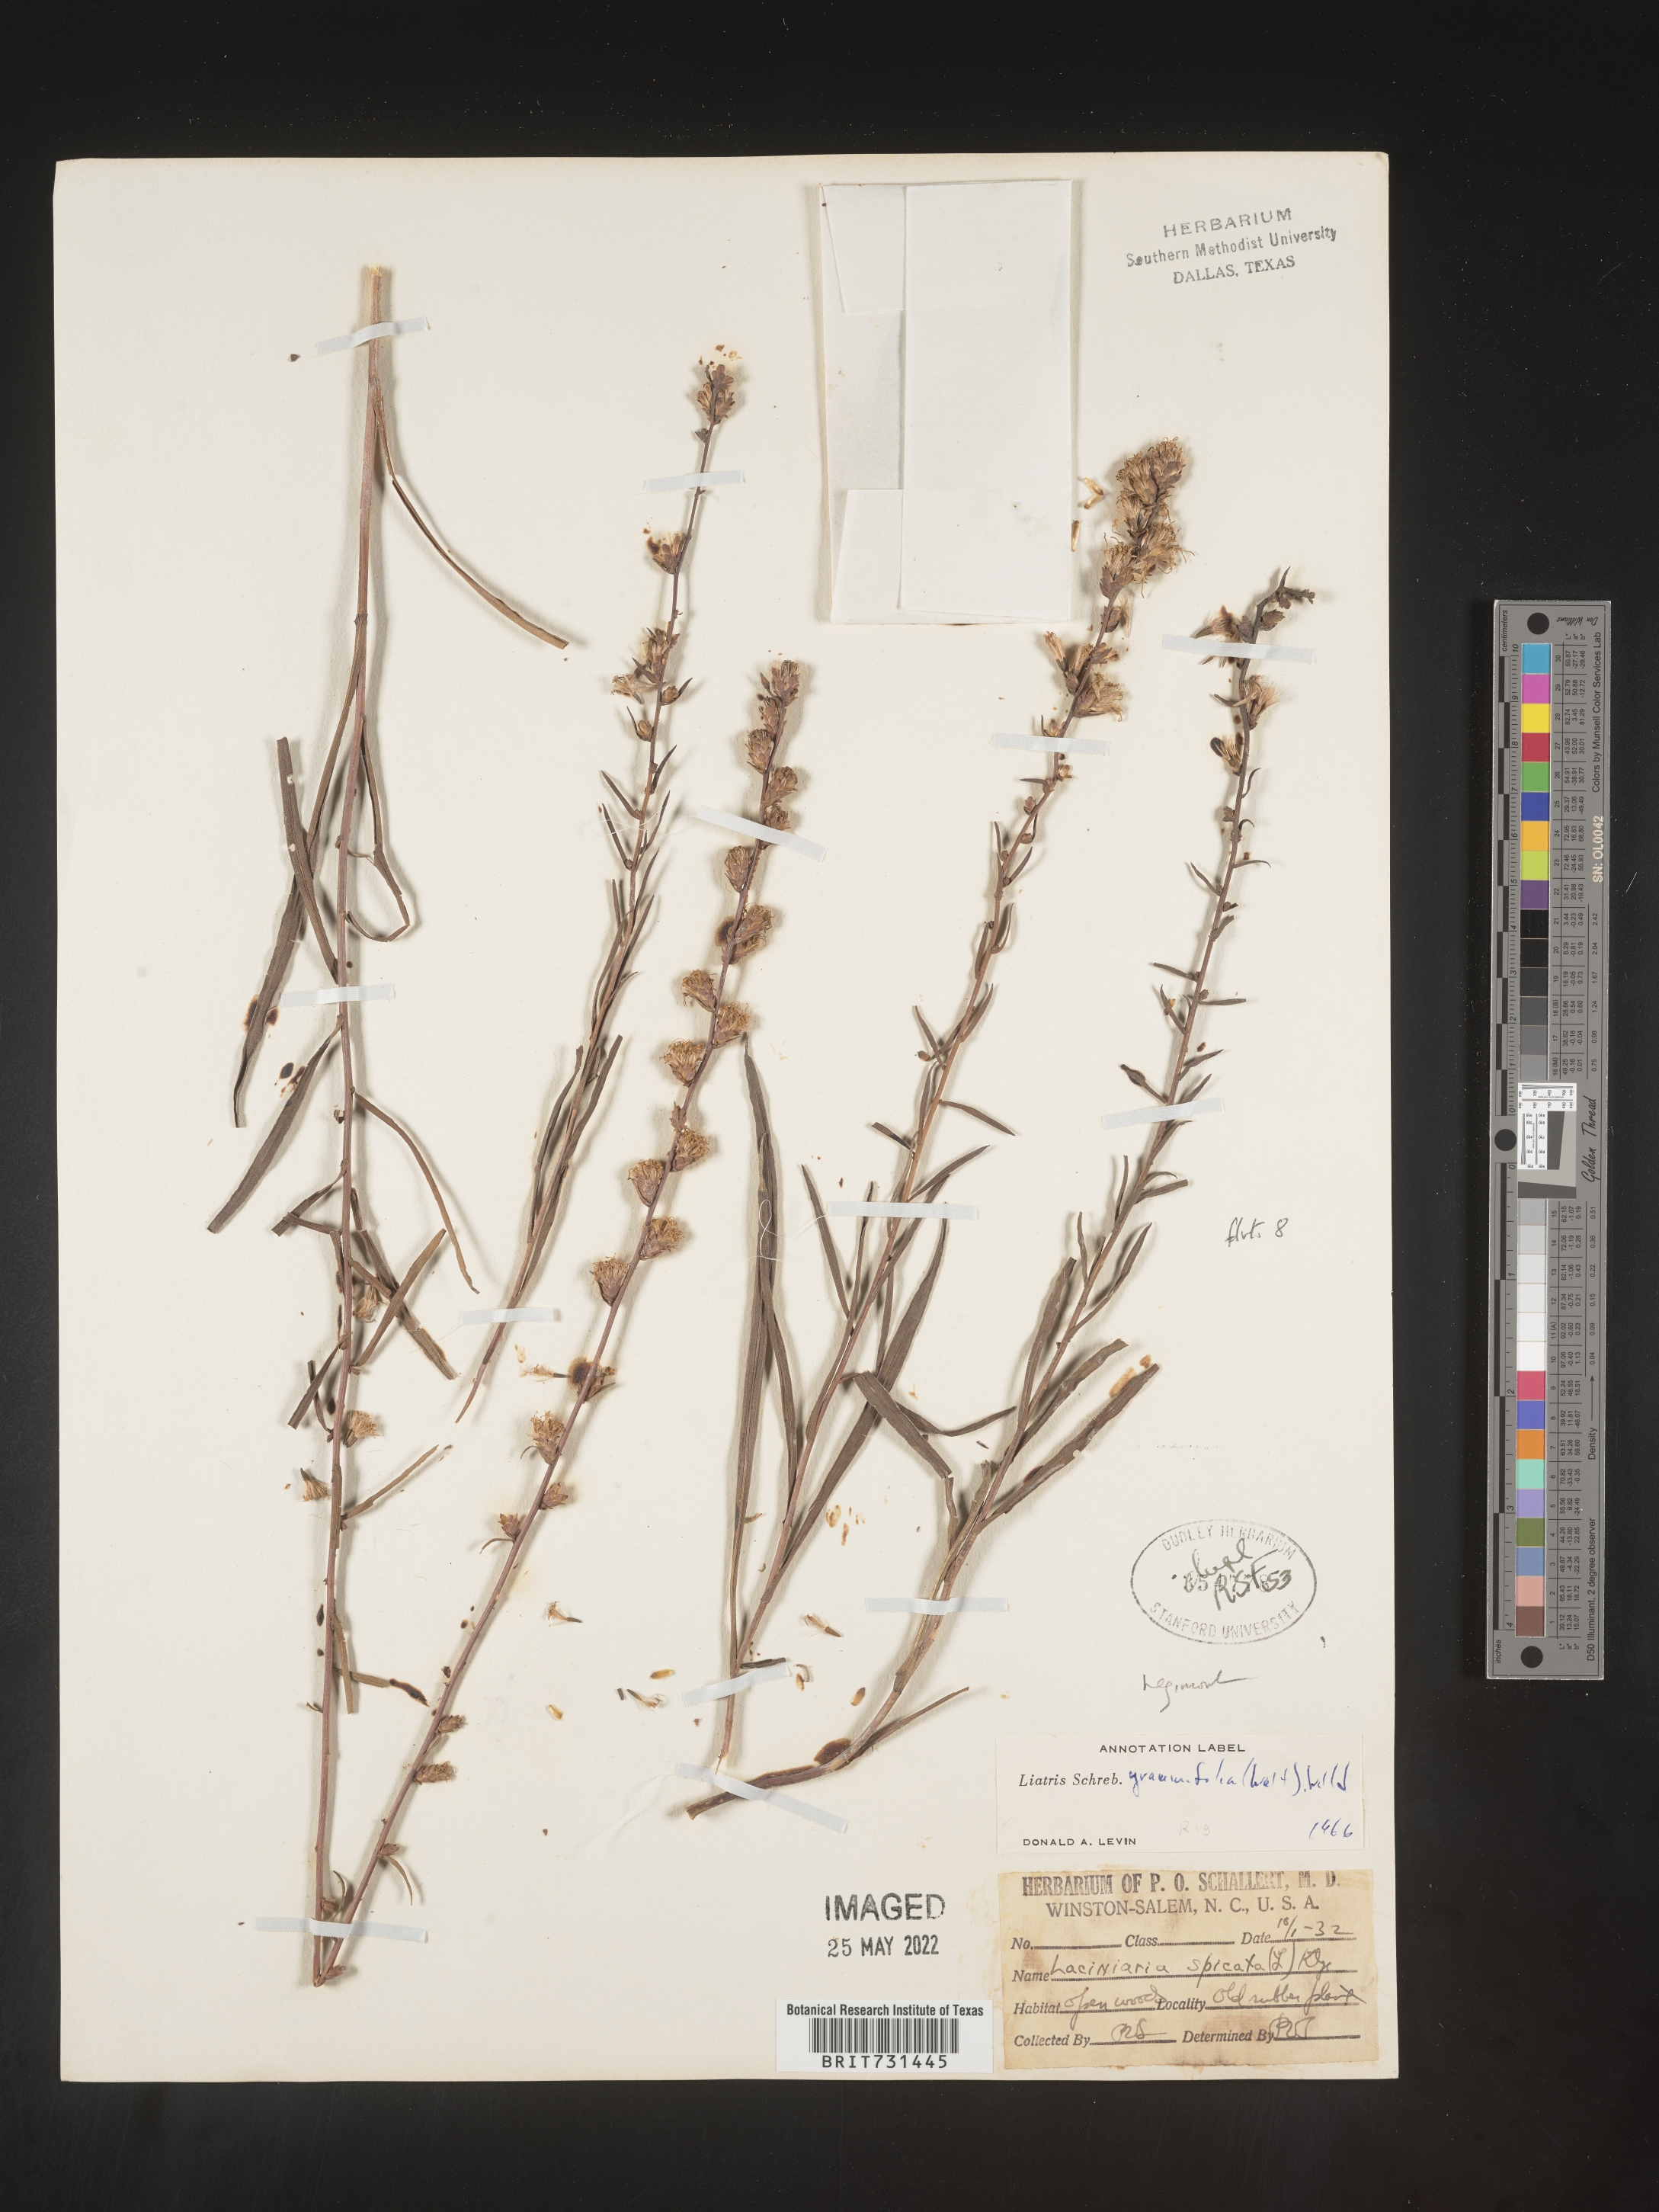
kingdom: Plantae
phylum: Tracheophyta
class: Magnoliopsida
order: Asterales
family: Asteraceae
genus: Liatris
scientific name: Liatris virgata
